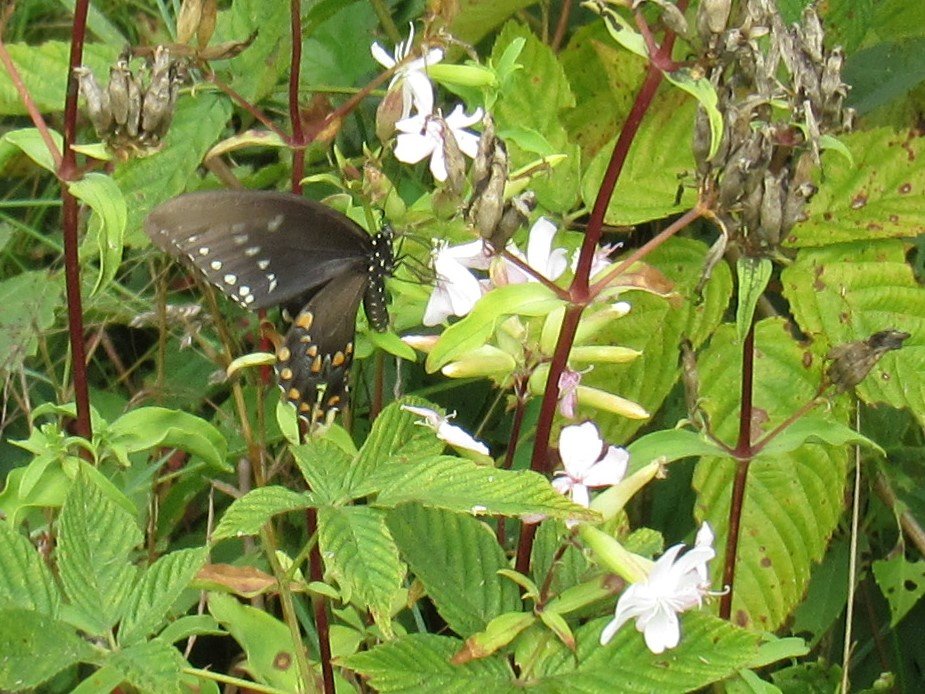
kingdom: Animalia
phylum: Arthropoda
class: Insecta
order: Lepidoptera
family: Papilionidae
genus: Pterourus
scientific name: Pterourus troilus
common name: Spicebush Swallowtail
